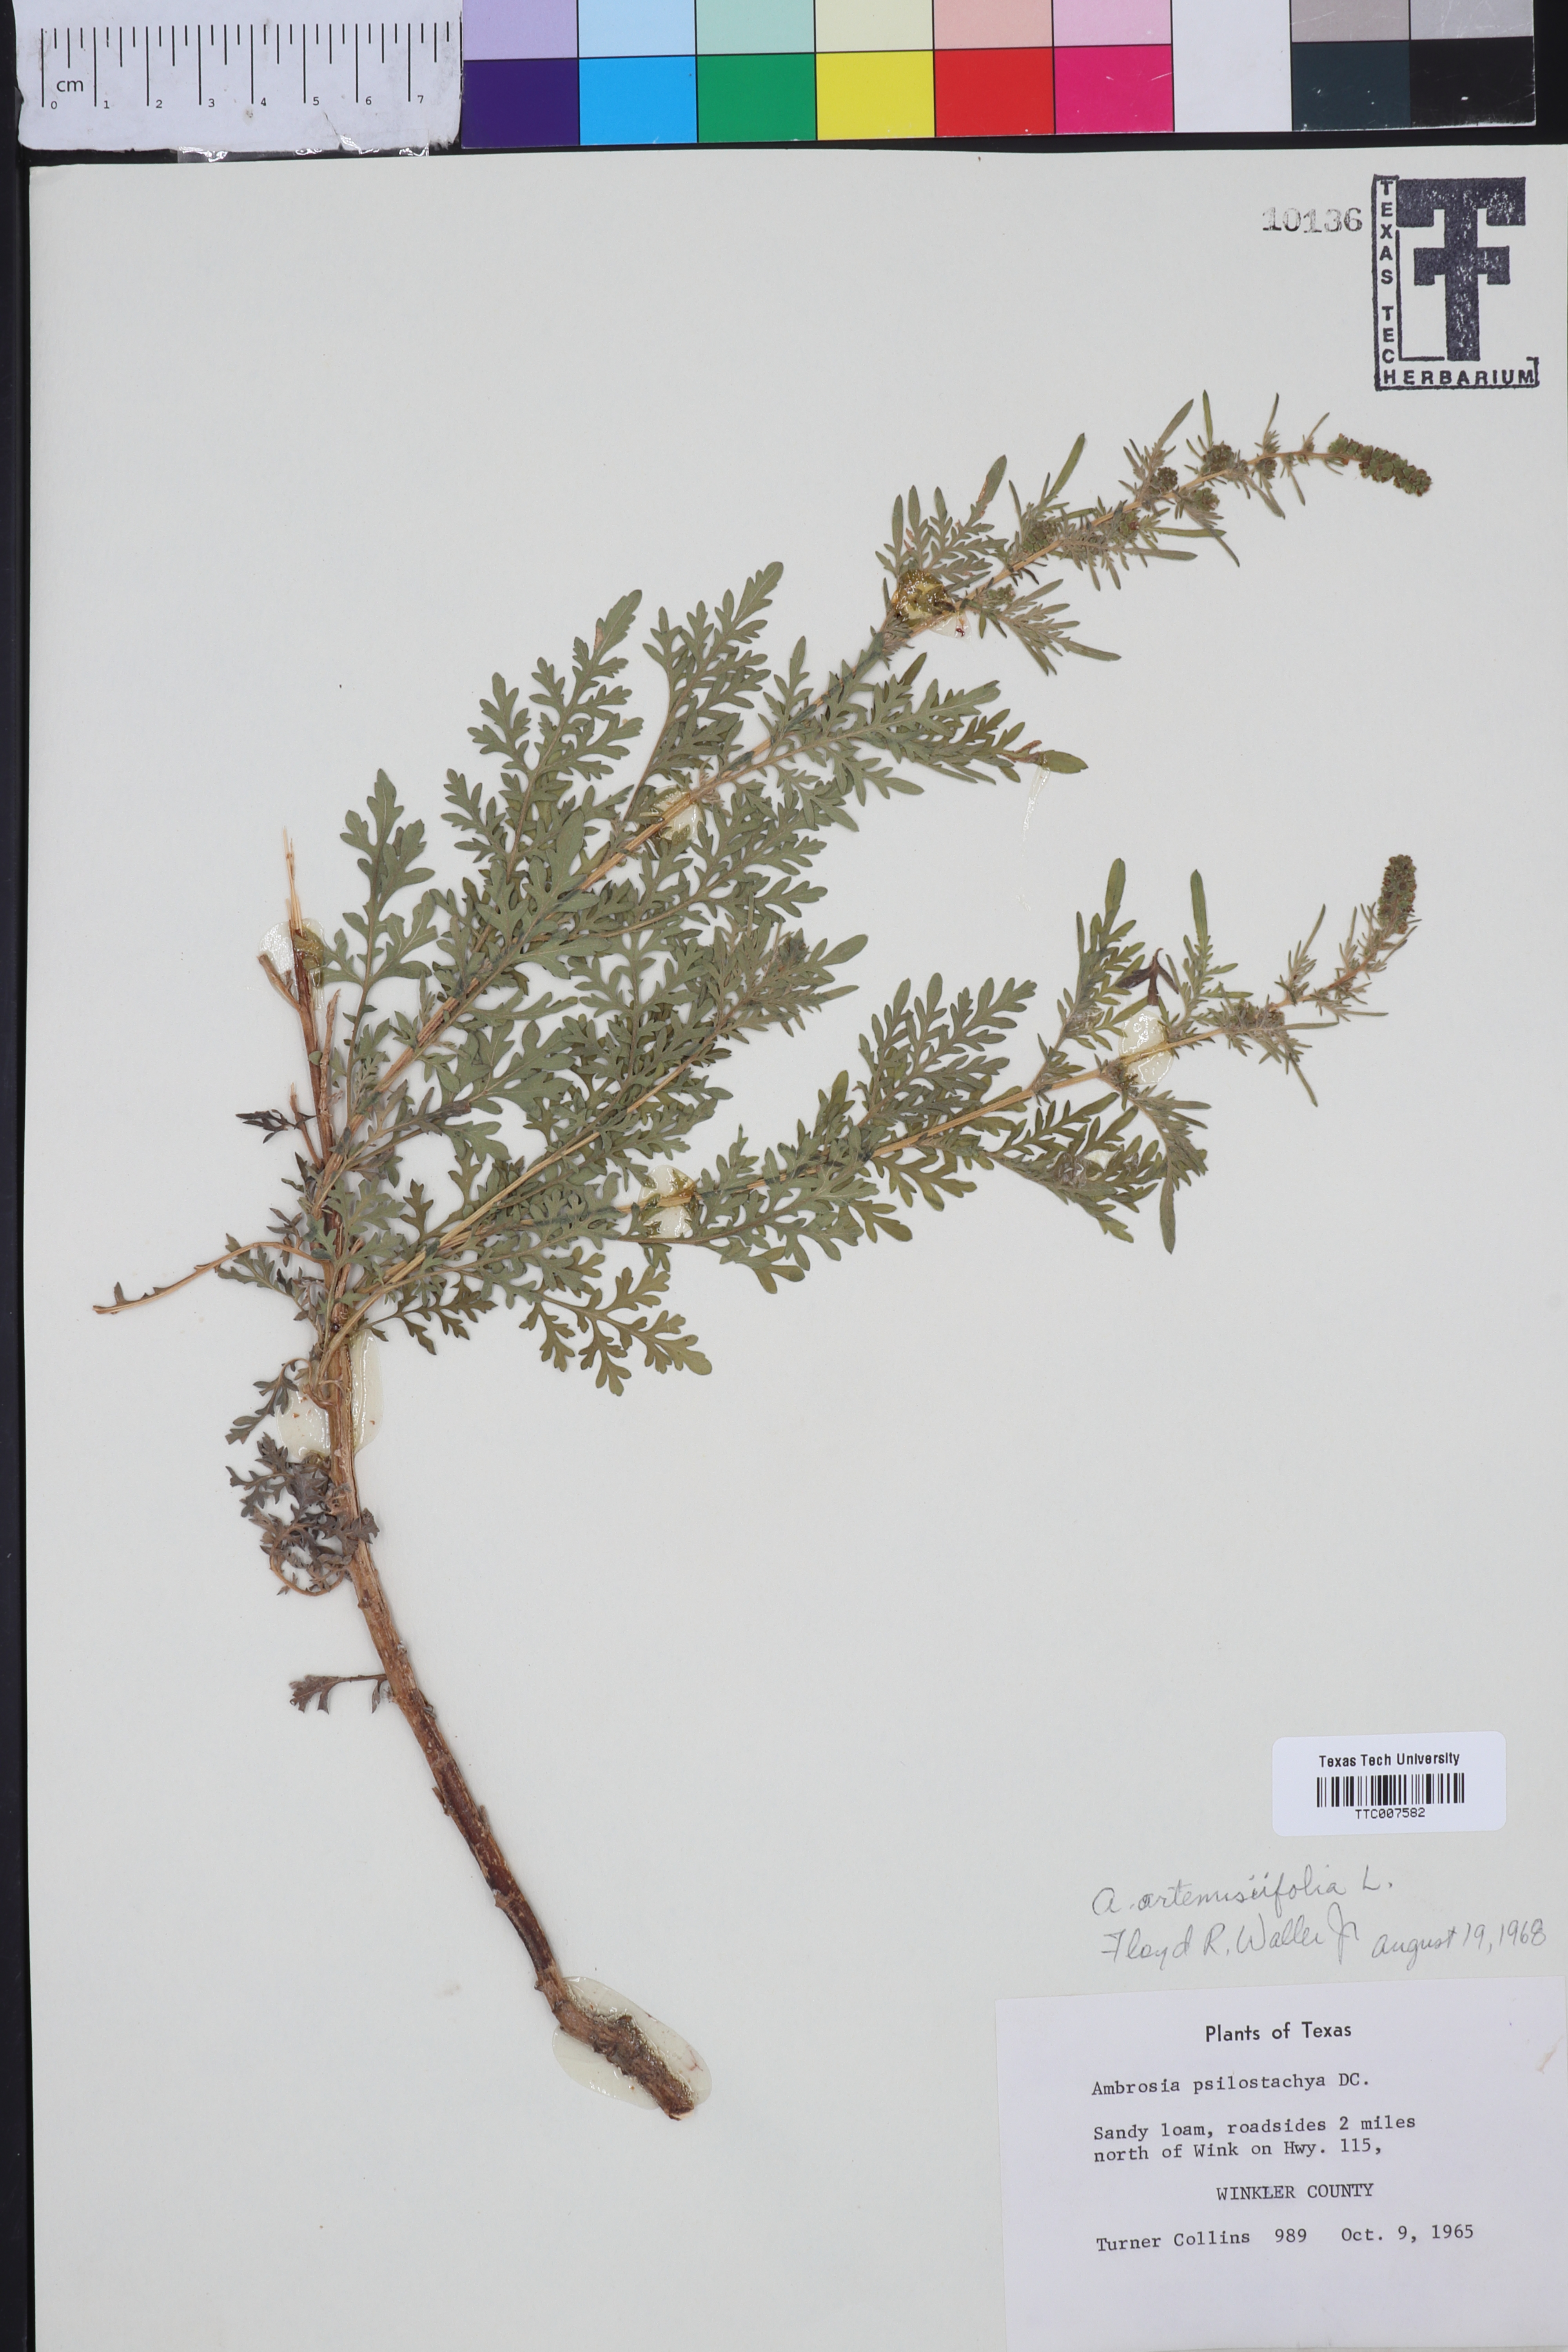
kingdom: Plantae
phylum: Tracheophyta
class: Magnoliopsida
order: Asterales
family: Asteraceae
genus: Ambrosia
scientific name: Ambrosia artemisiifolia
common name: Annual ragweed
